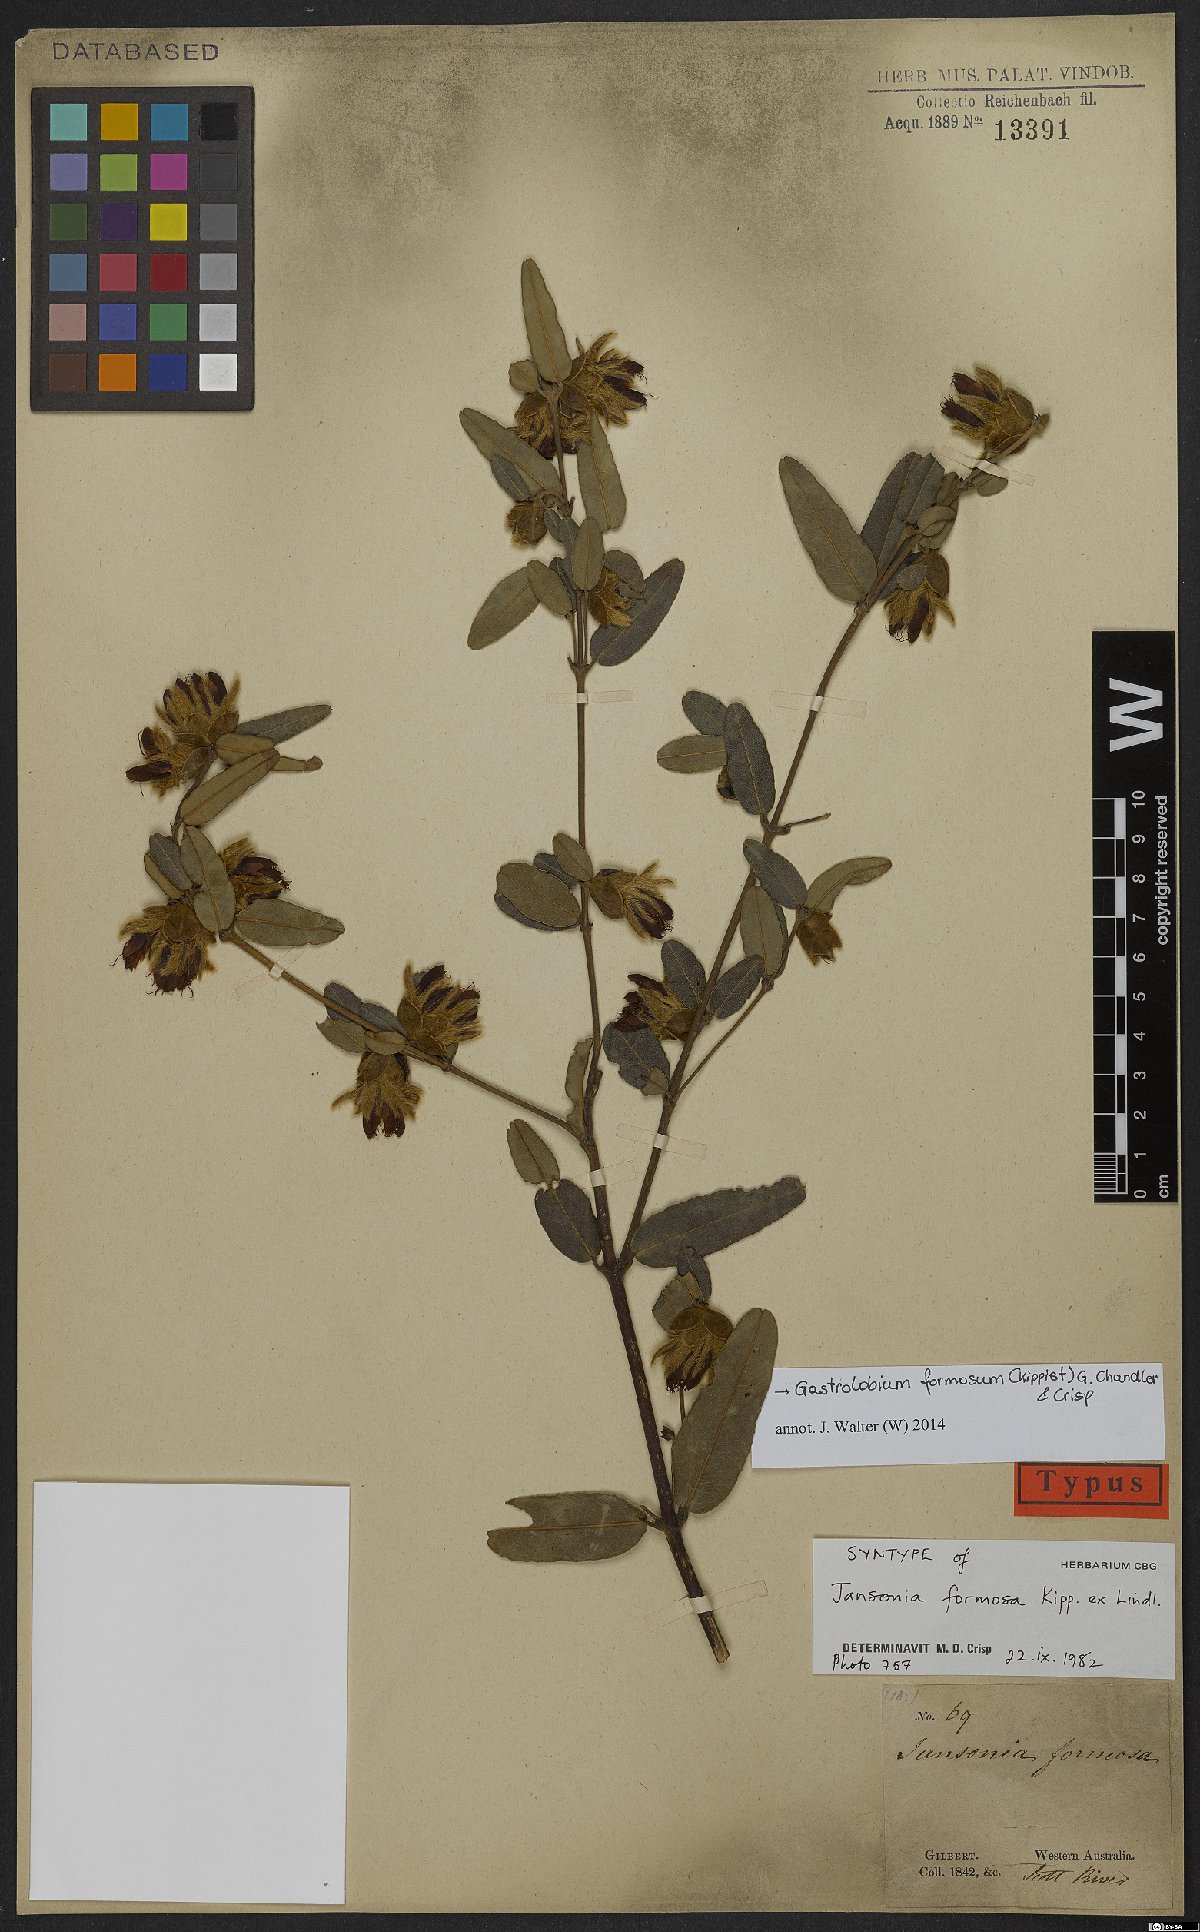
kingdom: Plantae
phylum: Tracheophyta
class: Magnoliopsida
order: Fabales
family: Fabaceae
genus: Gastrolobium
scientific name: Gastrolobium formosum
